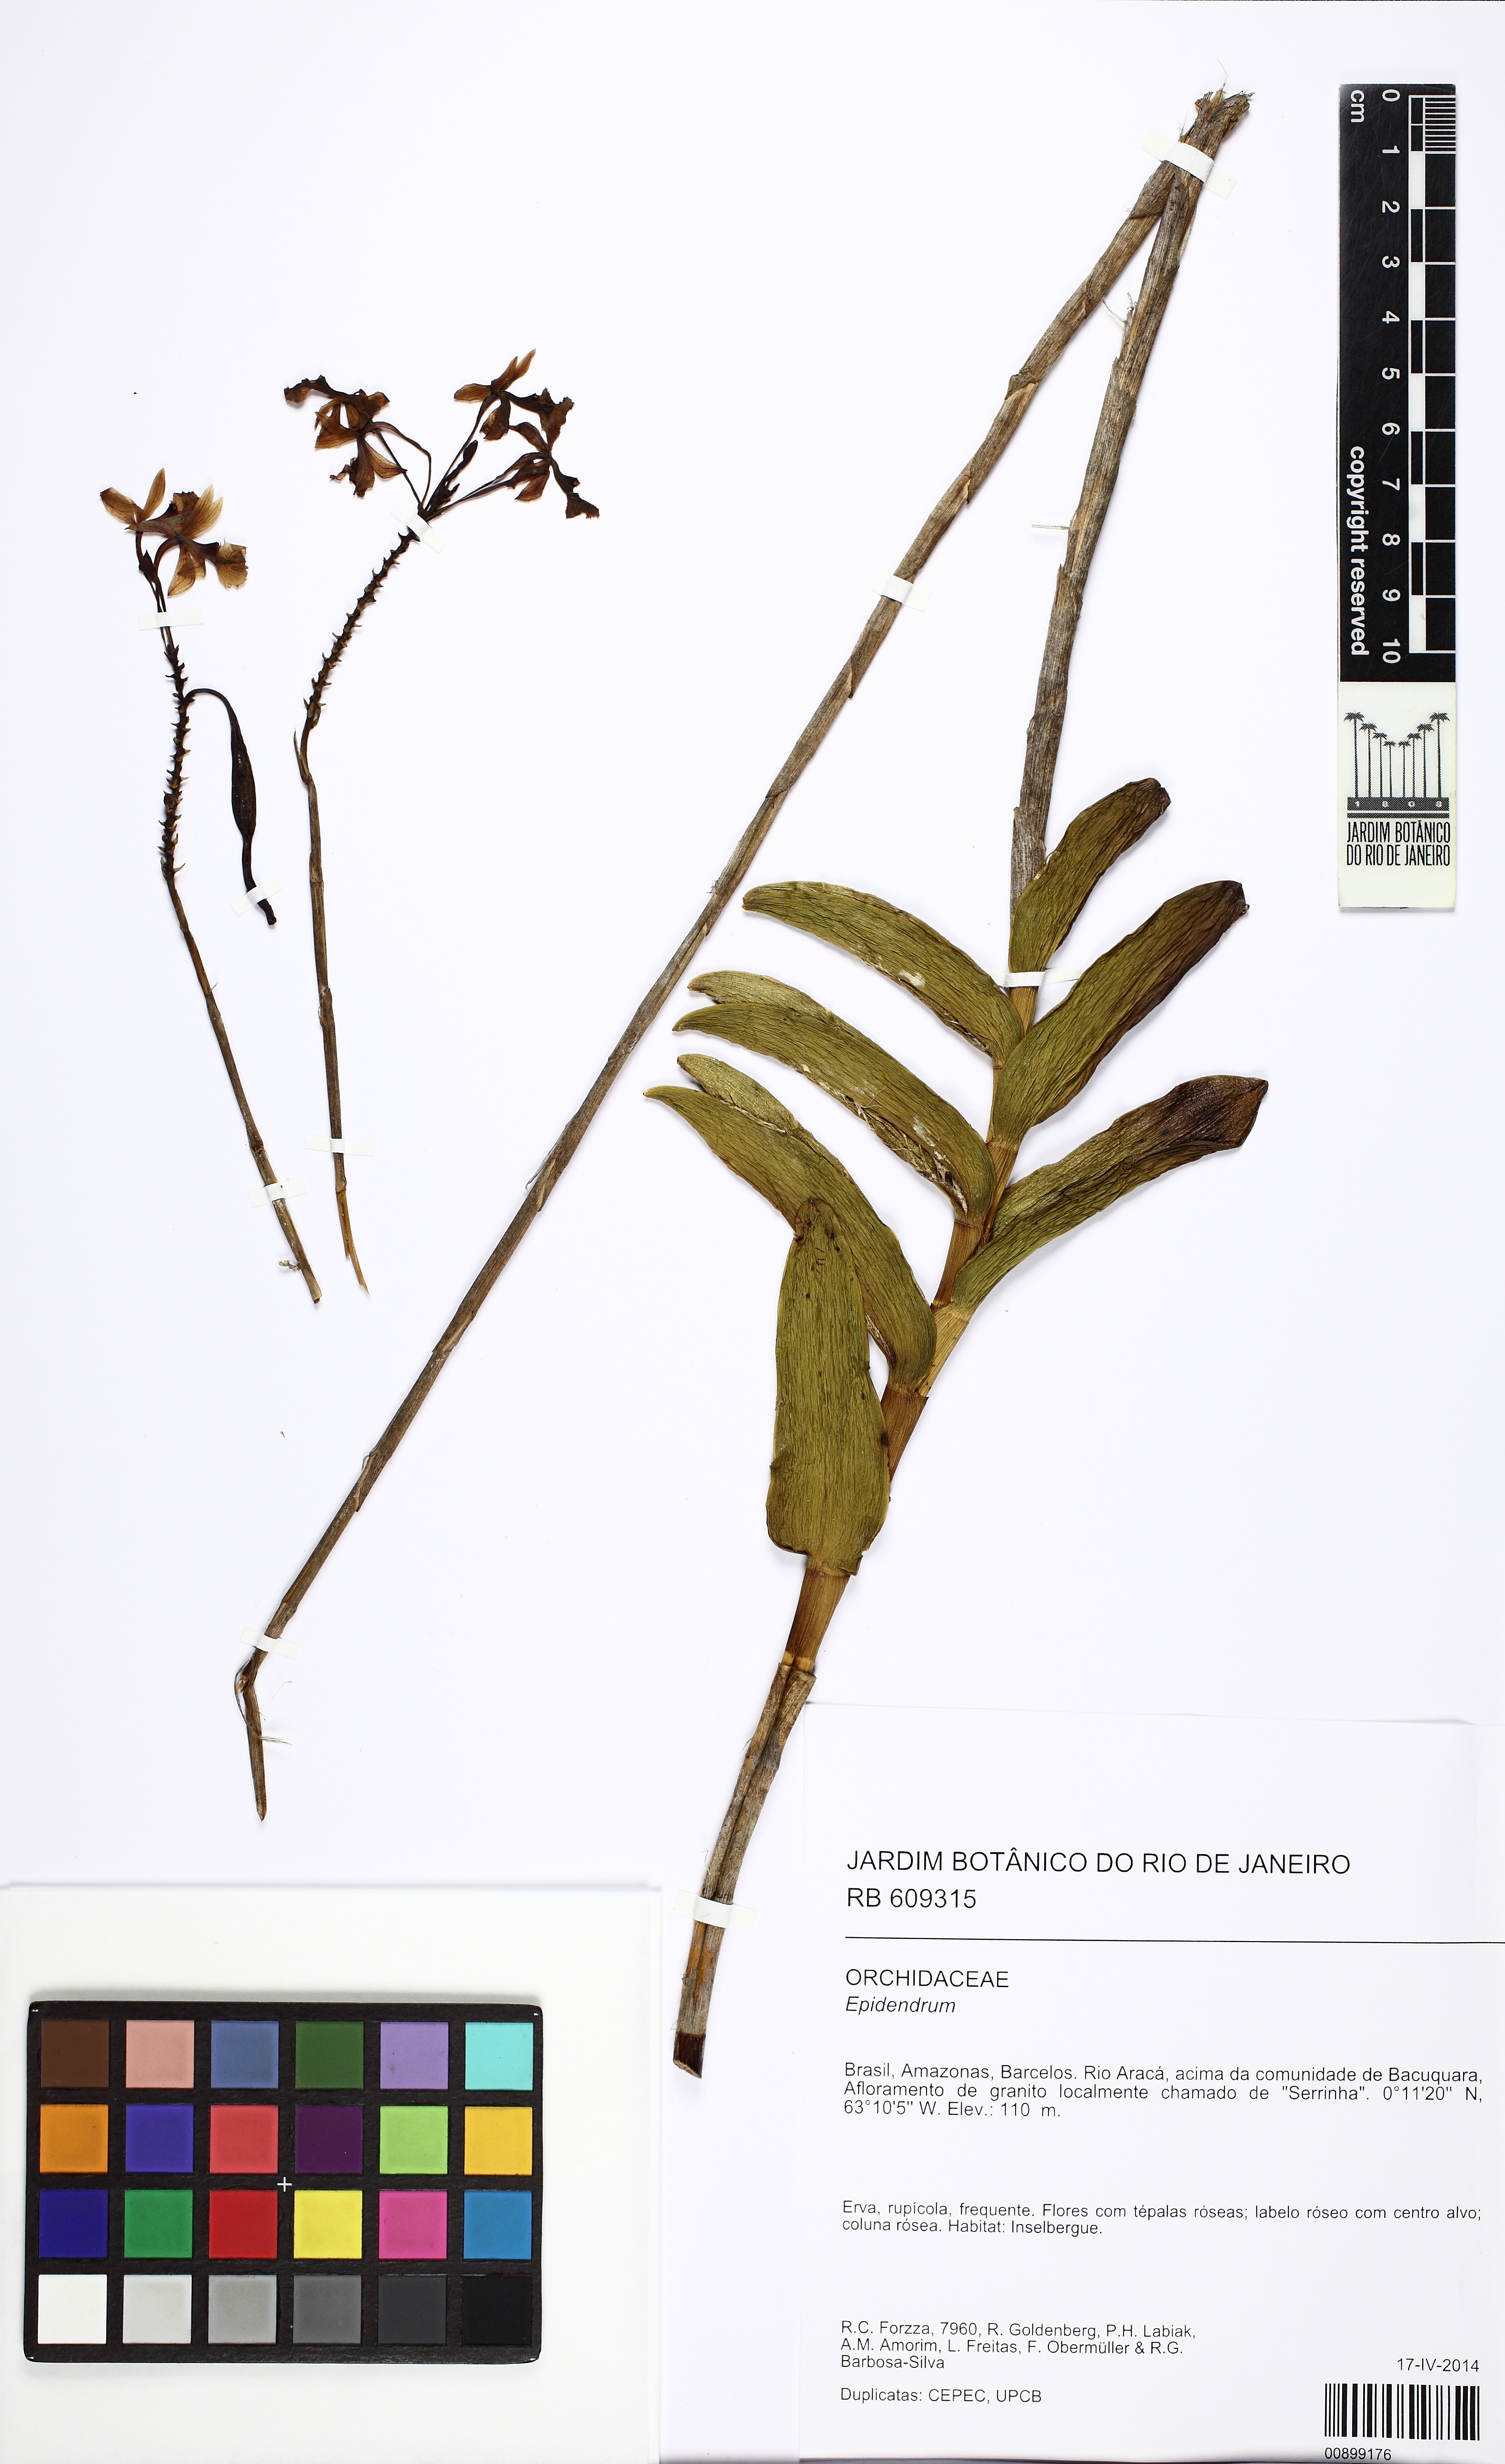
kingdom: Plantae
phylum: Tracheophyta
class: Liliopsida
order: Asparagales
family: Orchidaceae
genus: Epidendrum
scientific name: Epidendrum ibaguense
